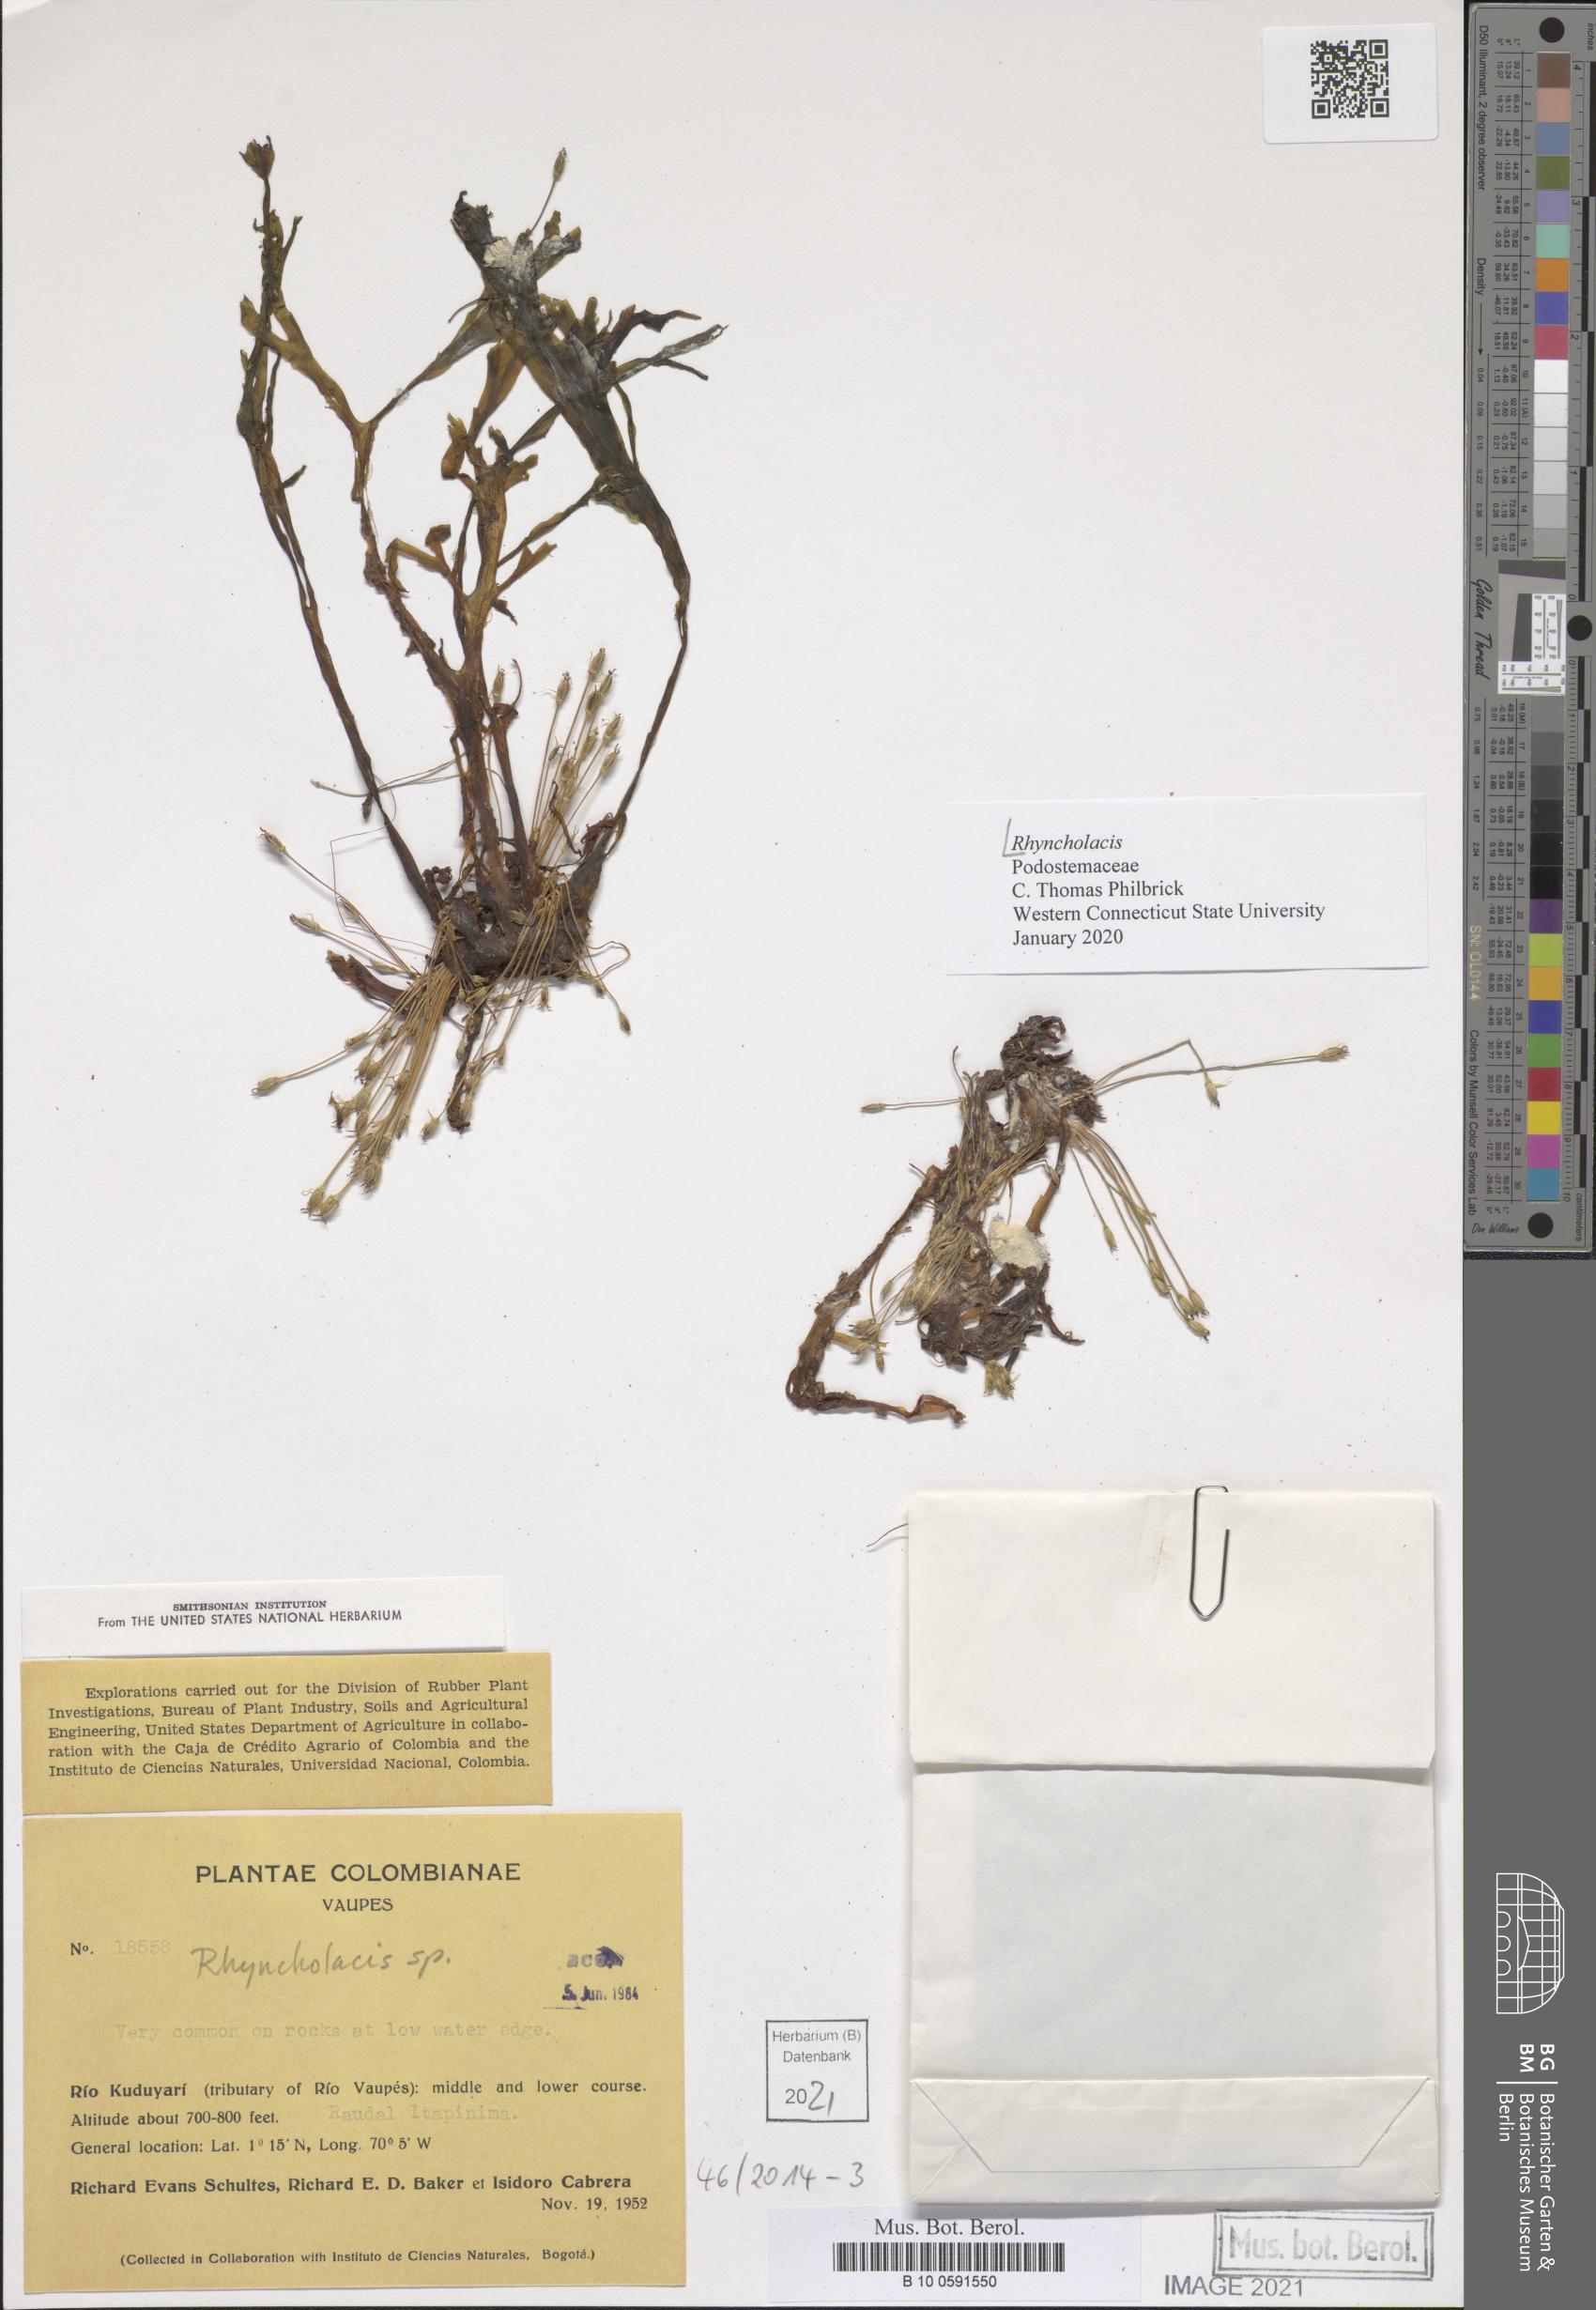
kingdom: Plantae
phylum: Tracheophyta
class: Magnoliopsida
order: Malpighiales
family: Podostemaceae
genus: Rhyncholacis
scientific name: Rhyncholacis
